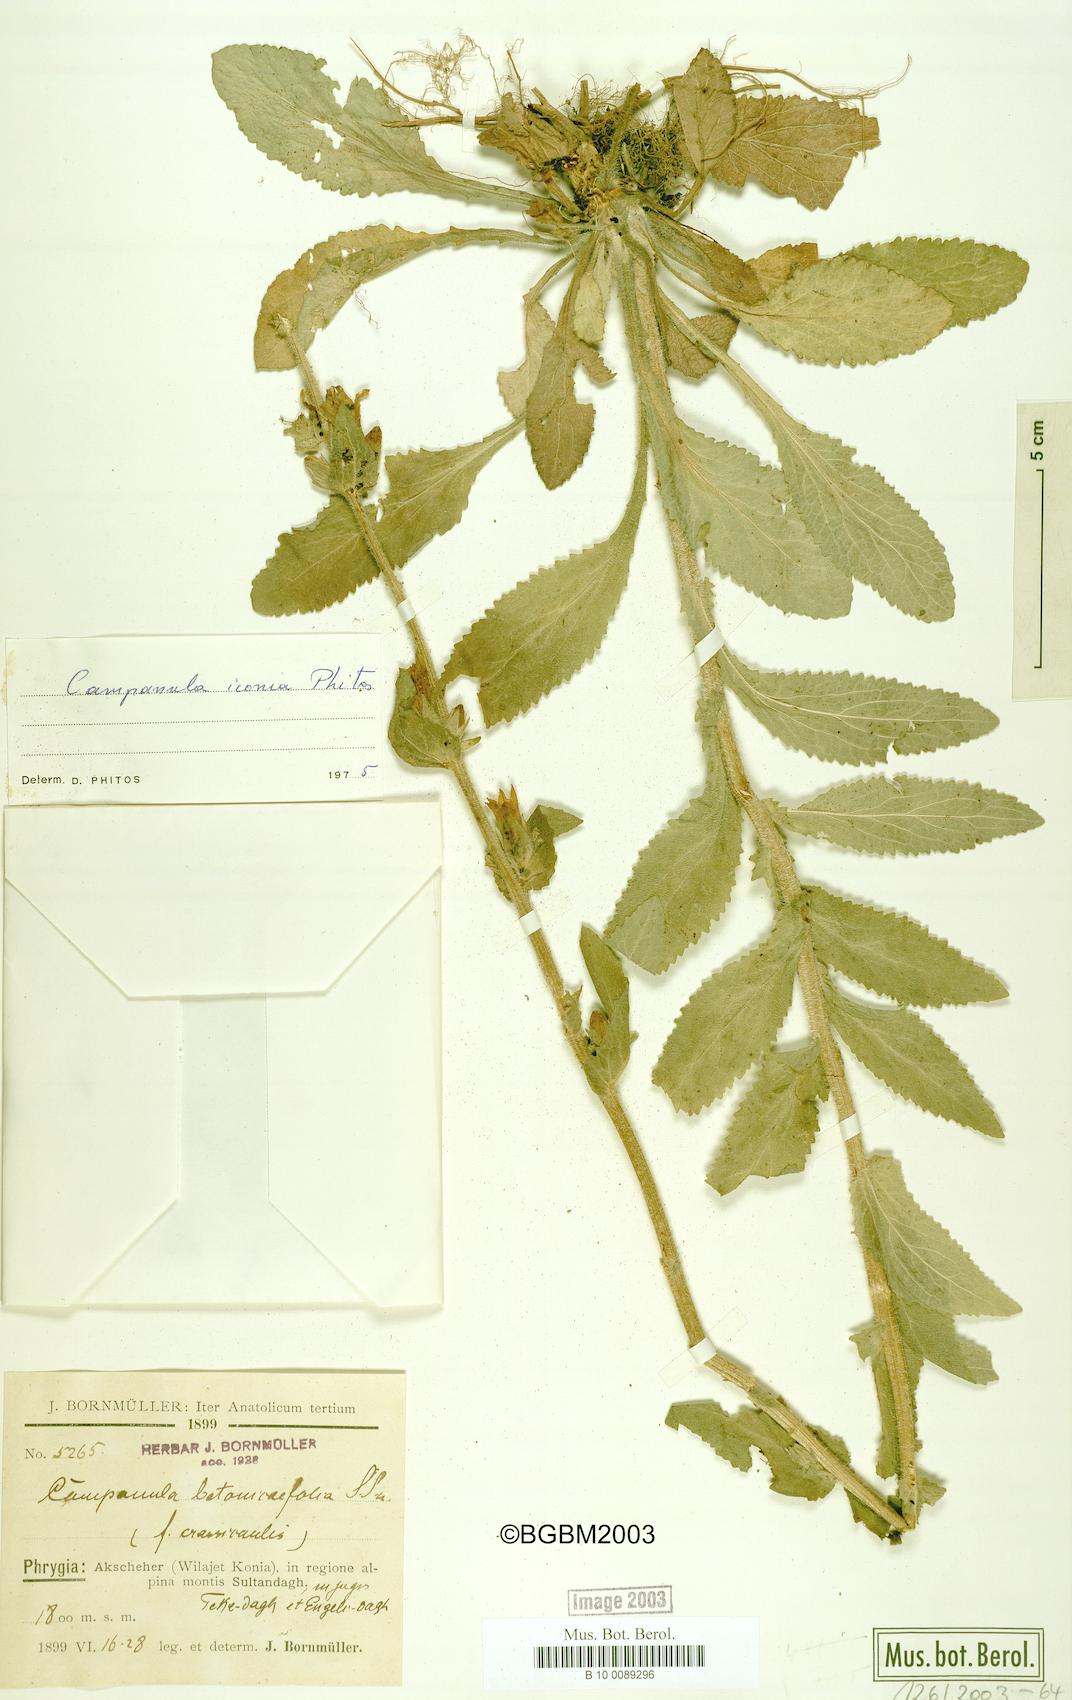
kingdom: Plantae
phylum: Tracheophyta
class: Magnoliopsida
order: Asterales
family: Campanulaceae
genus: Campanula
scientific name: Campanula iconia
